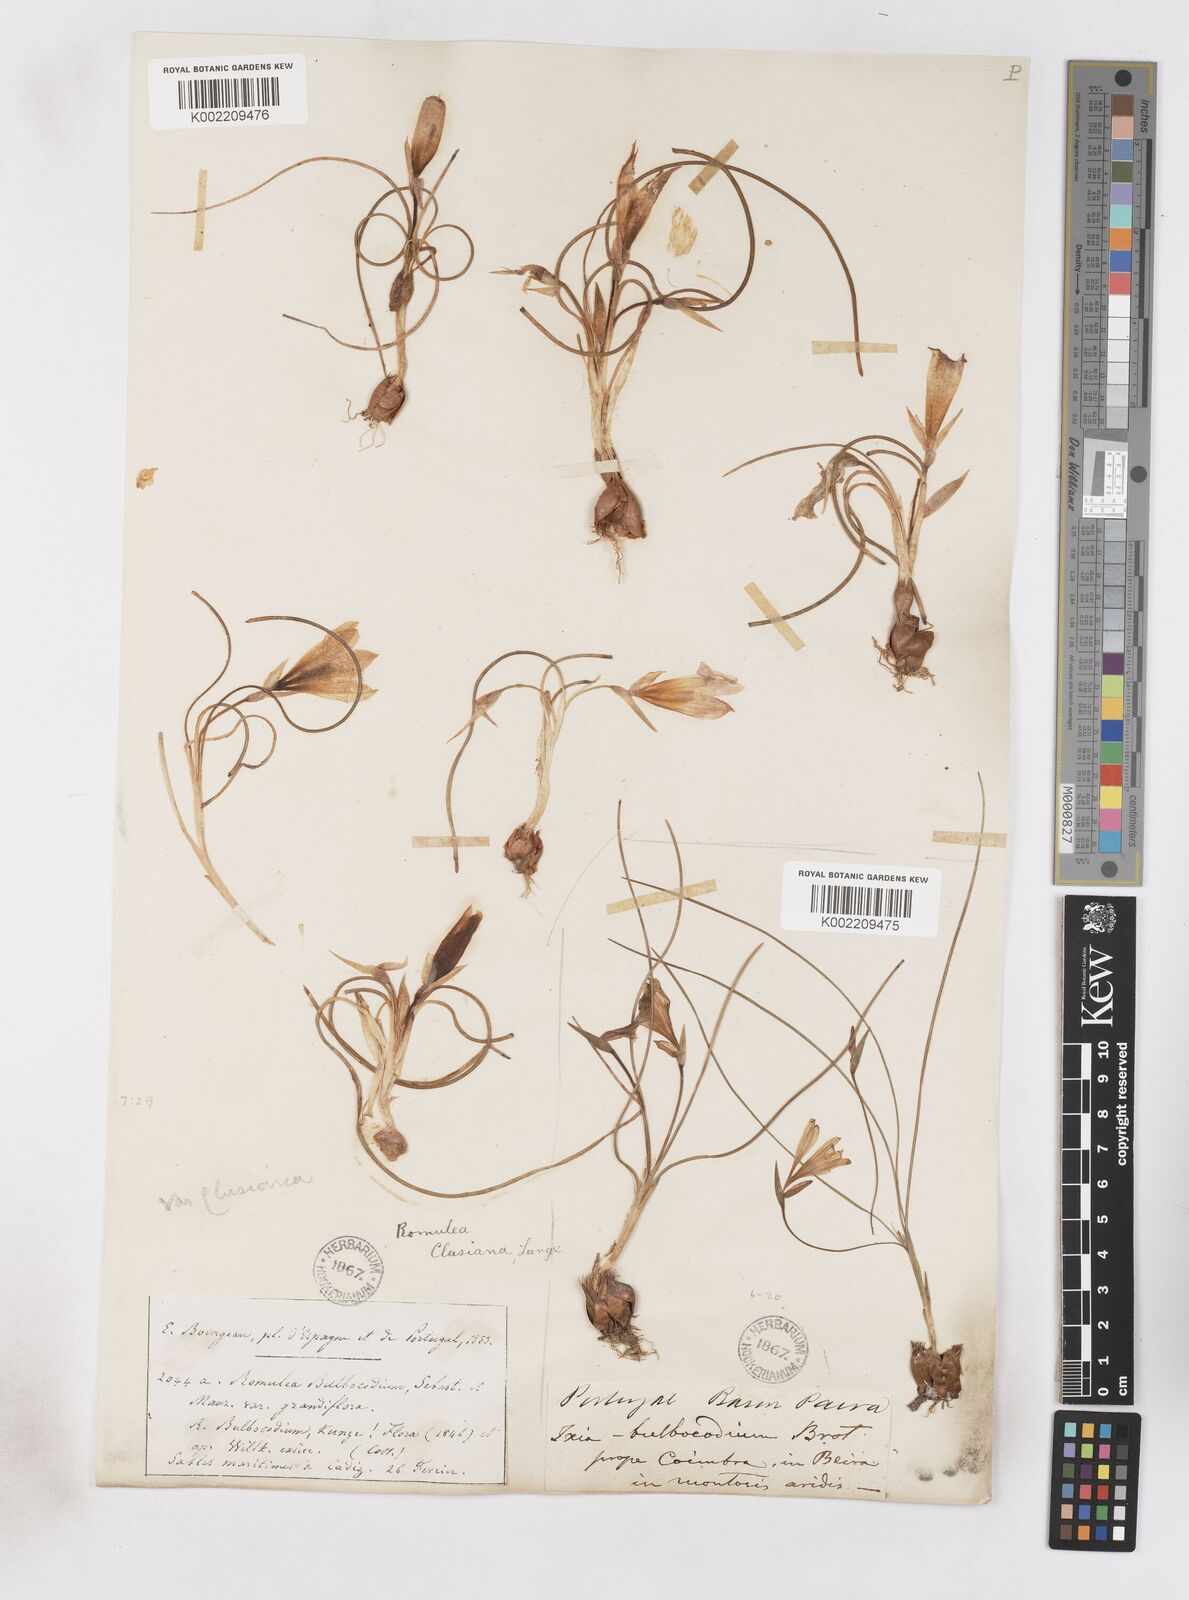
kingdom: Plantae
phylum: Tracheophyta
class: Liliopsida
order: Asparagales
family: Iridaceae
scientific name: Iridaceae
